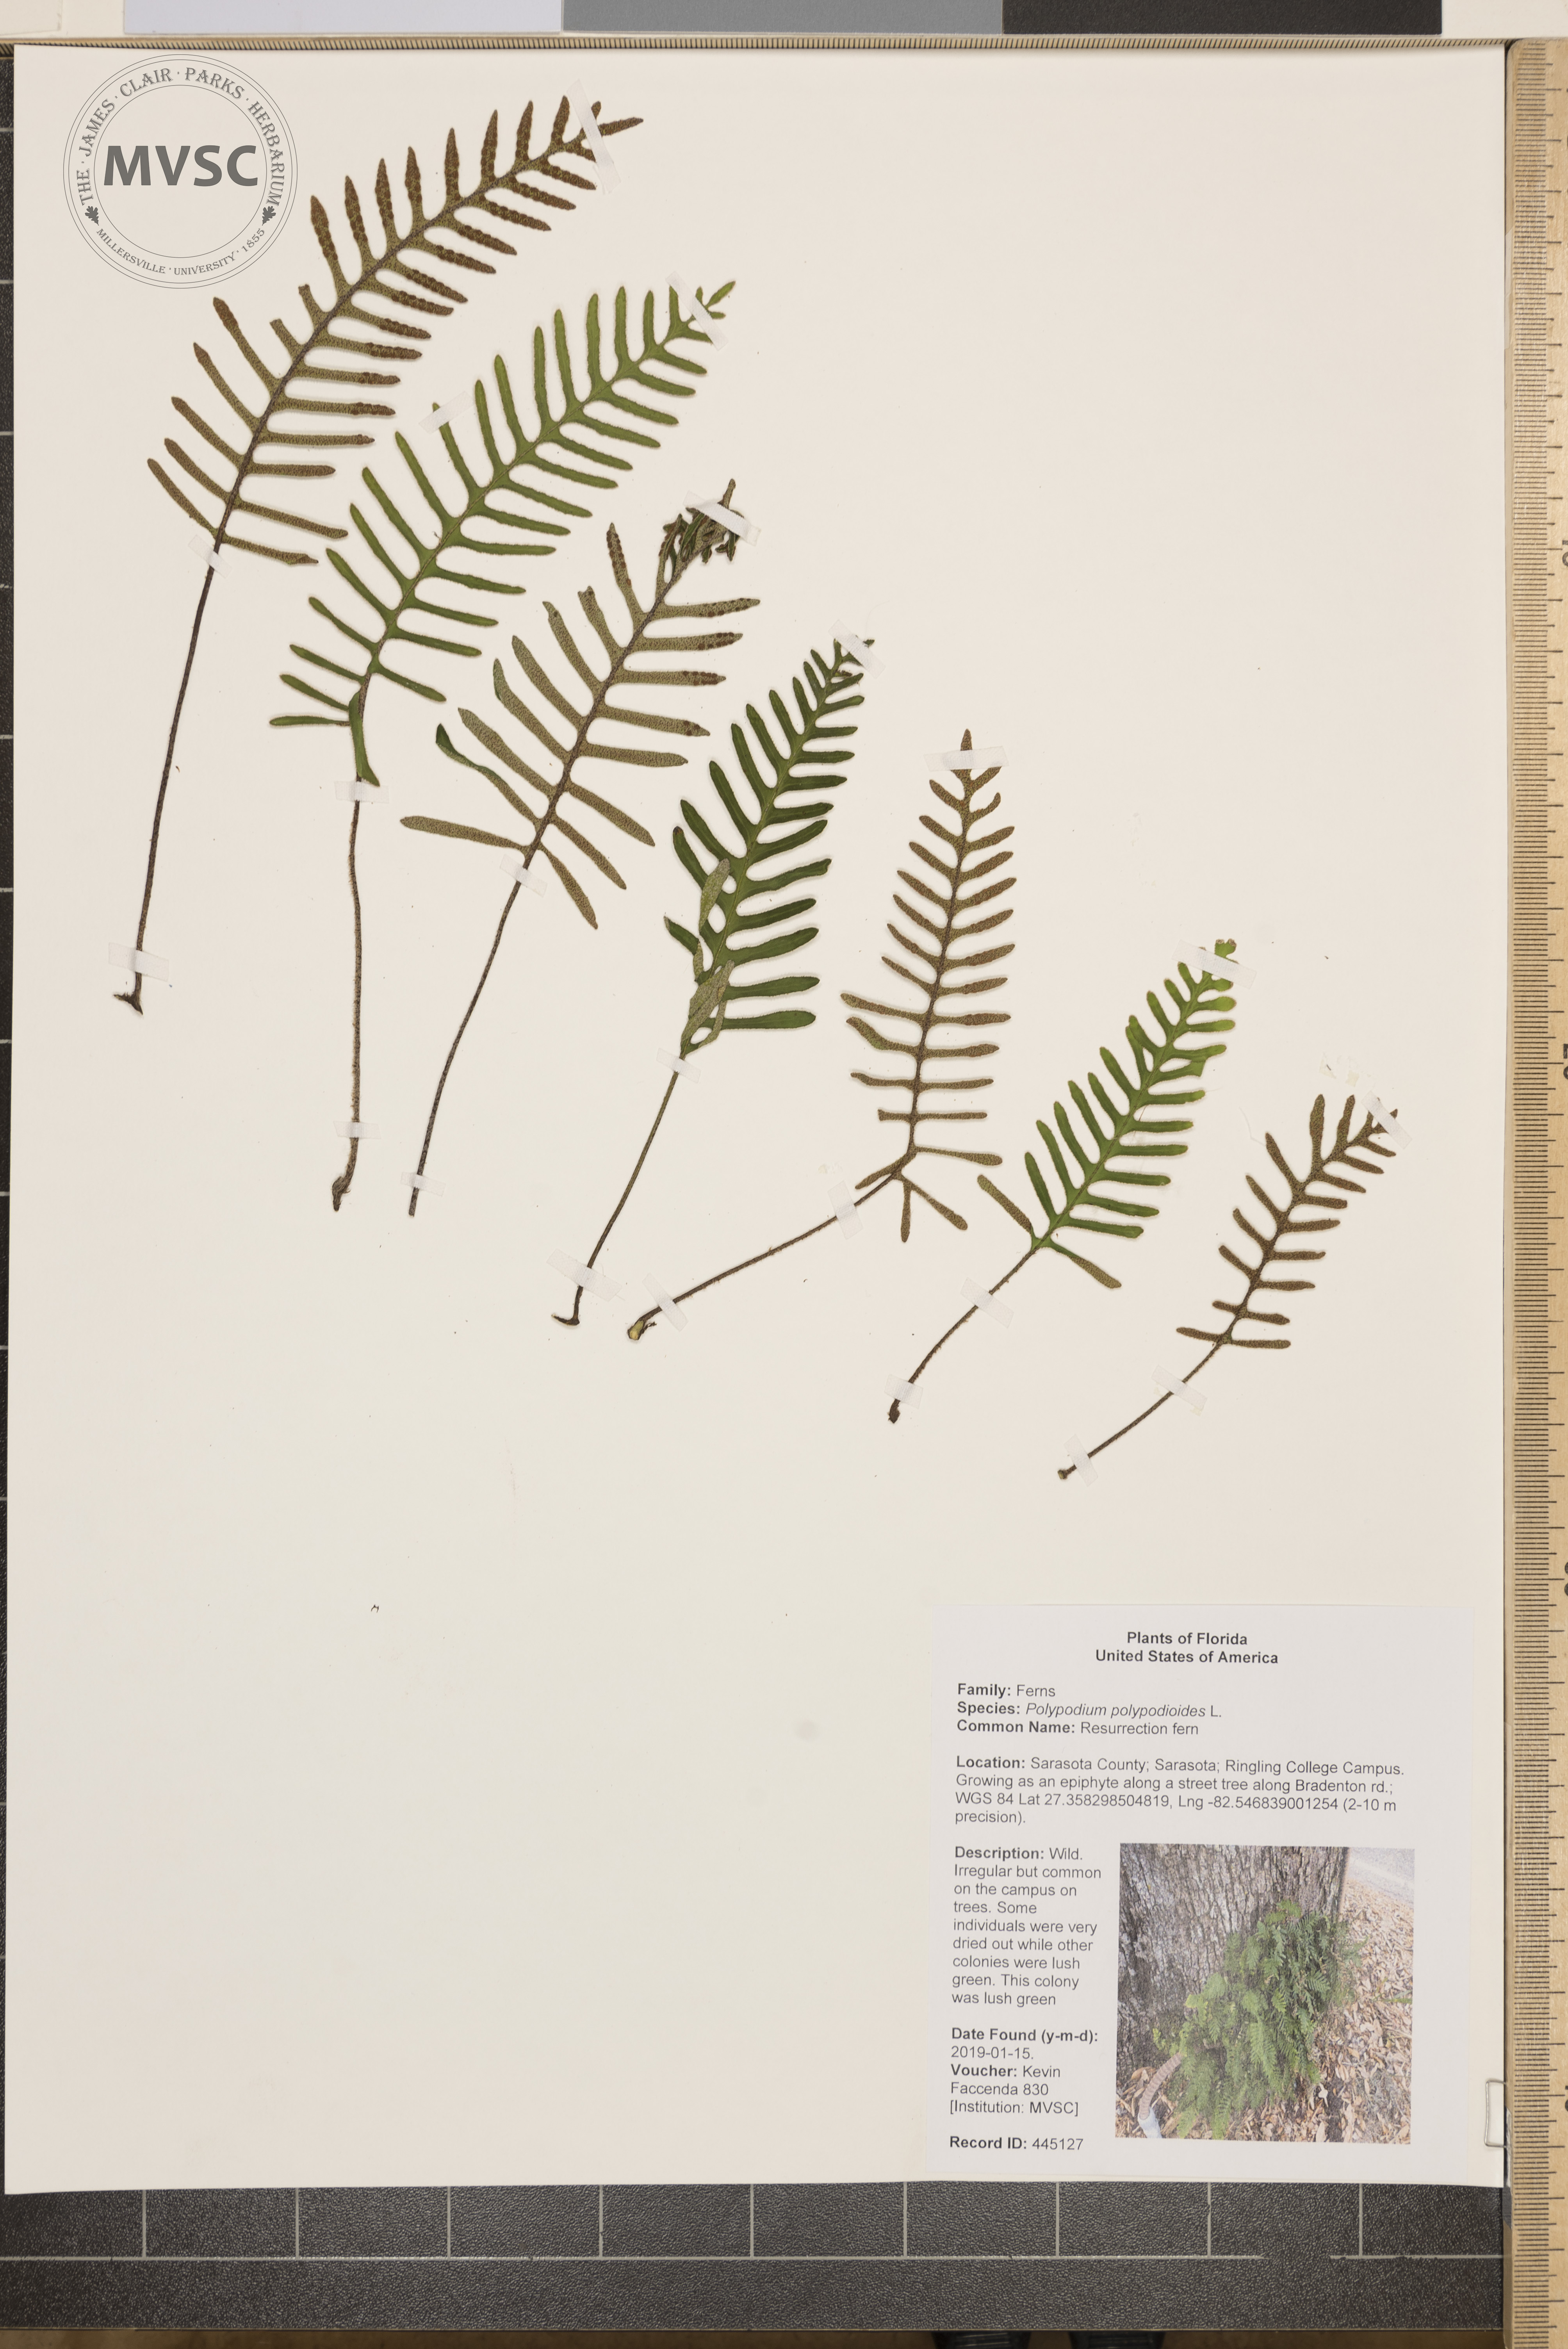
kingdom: Plantae
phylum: Tracheophyta
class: Polypodiopsida
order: Polypodiales
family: Polypodiaceae
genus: Pleopeltis
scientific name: Pleopeltis polypodioides
